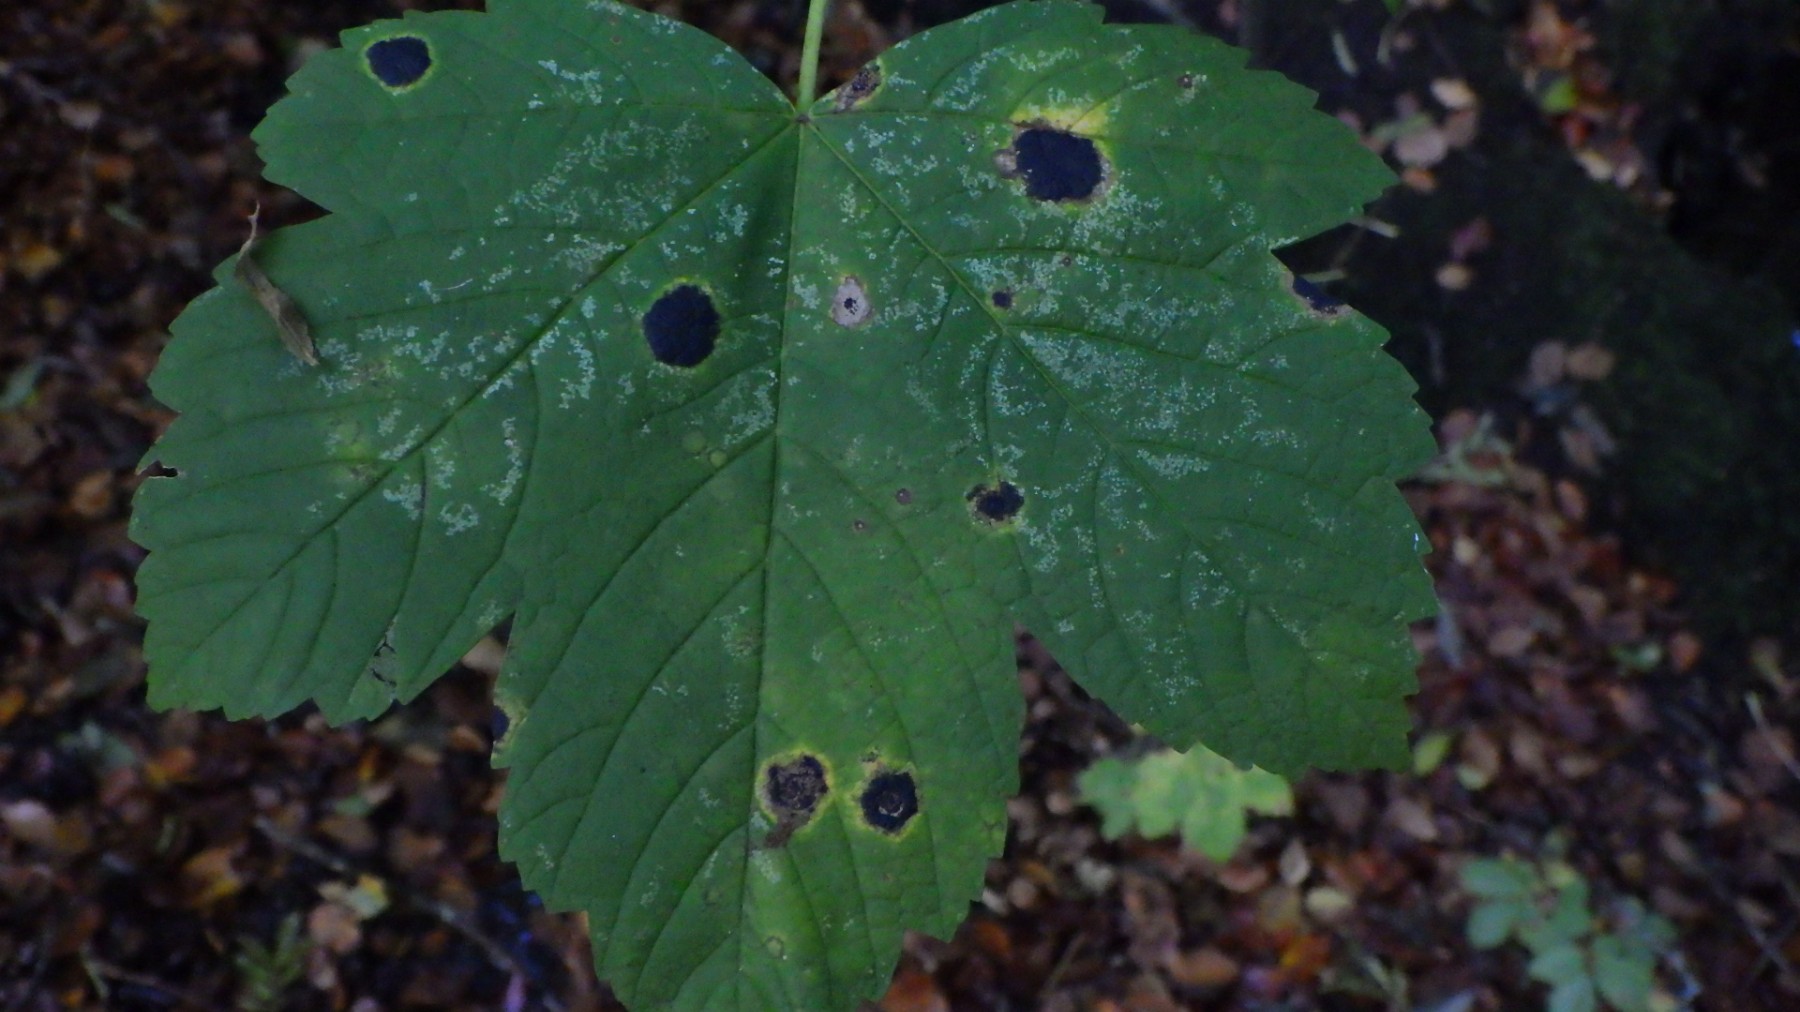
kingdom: Fungi
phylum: Ascomycota
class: Leotiomycetes
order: Rhytismatales
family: Rhytismataceae
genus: Rhytisma
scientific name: Rhytisma acerinum
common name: ahorn-rynkeplet
